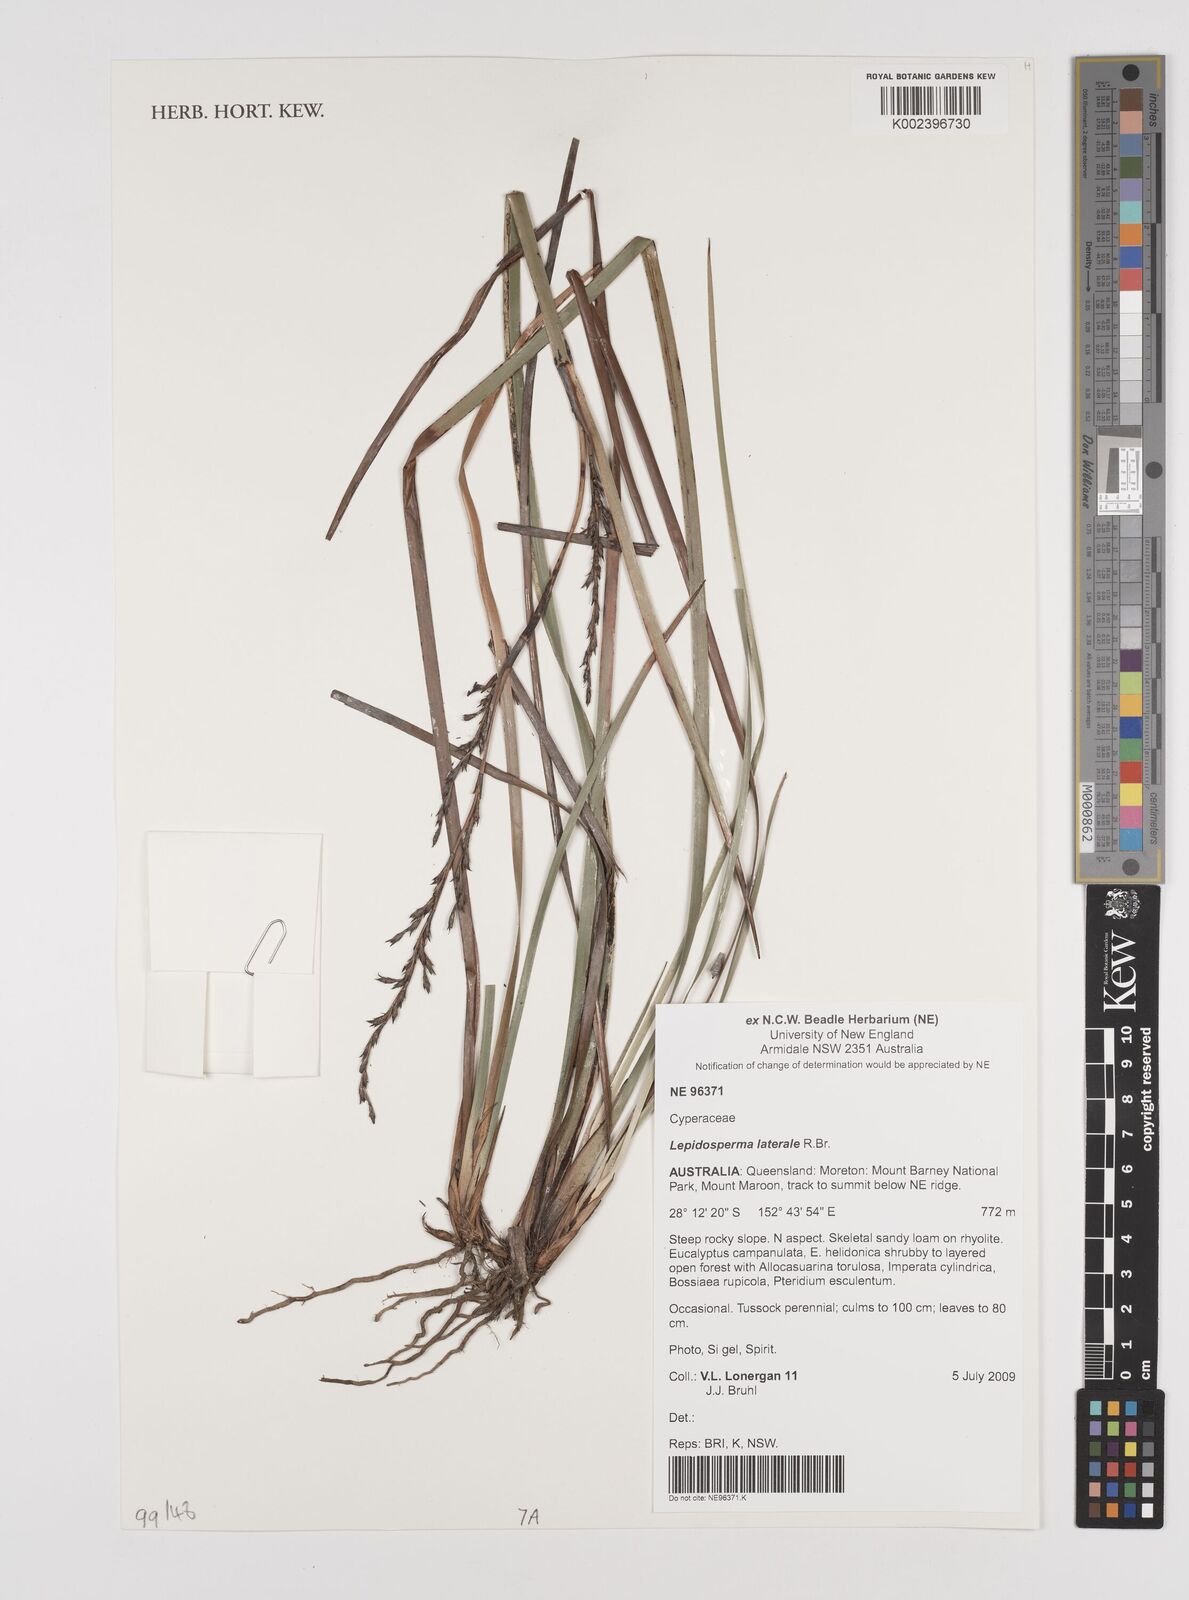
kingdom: Plantae
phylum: Tracheophyta
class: Liliopsida
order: Poales
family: Cyperaceae
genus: Lepidosperma
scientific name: Lepidosperma laterale
